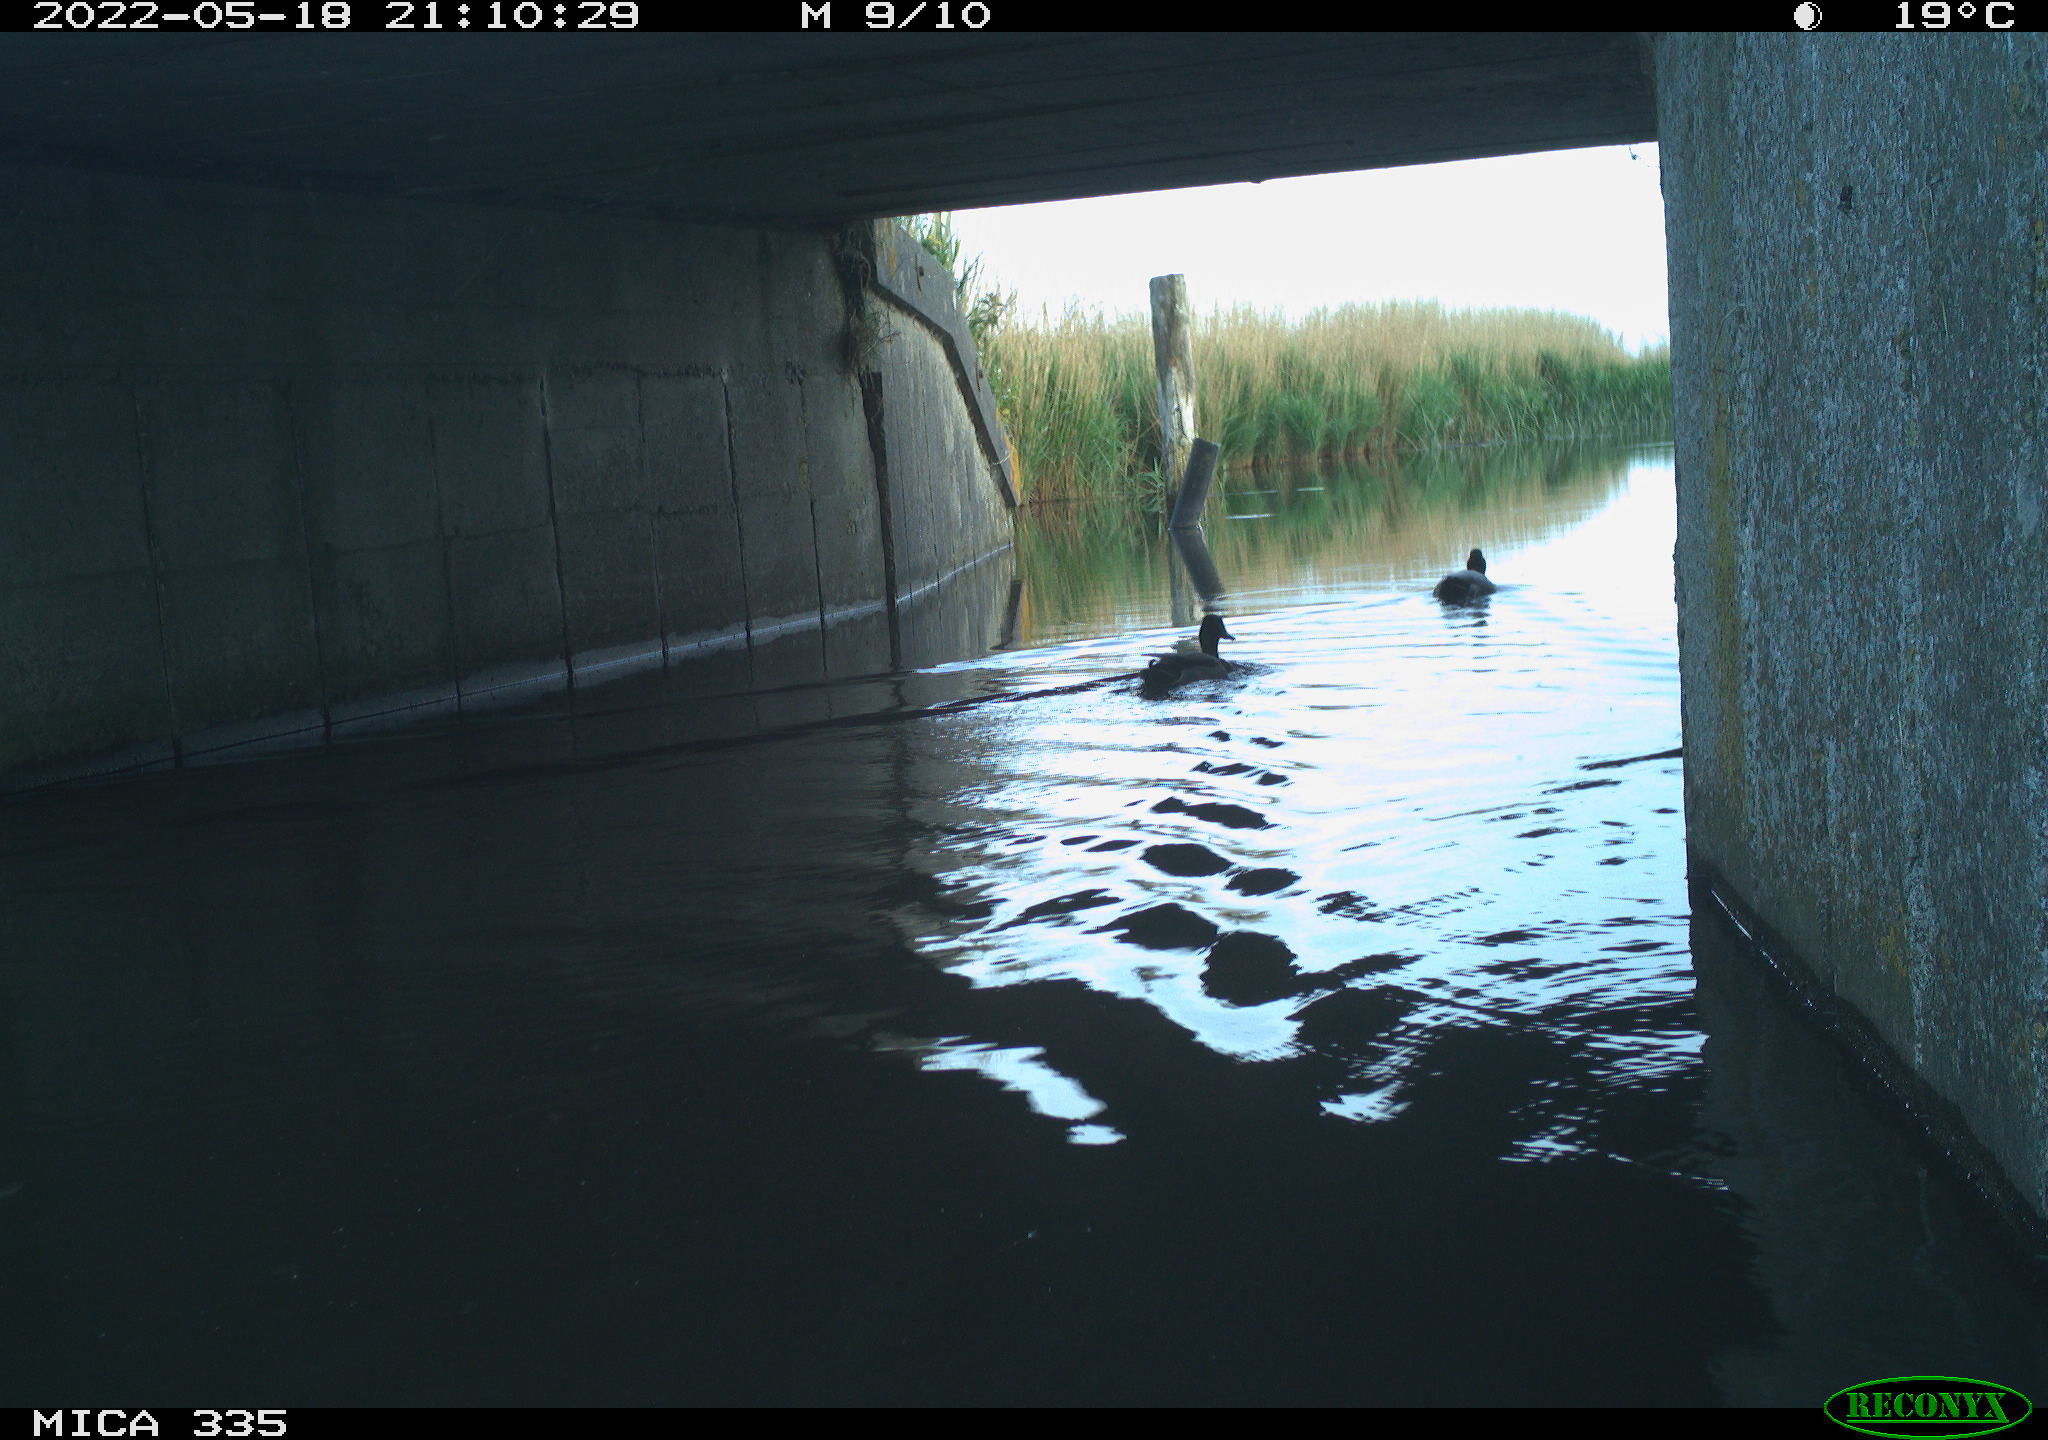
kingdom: Animalia
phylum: Chordata
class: Aves
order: Anseriformes
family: Anatidae
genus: Anas
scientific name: Anas platyrhynchos
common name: Mallard
